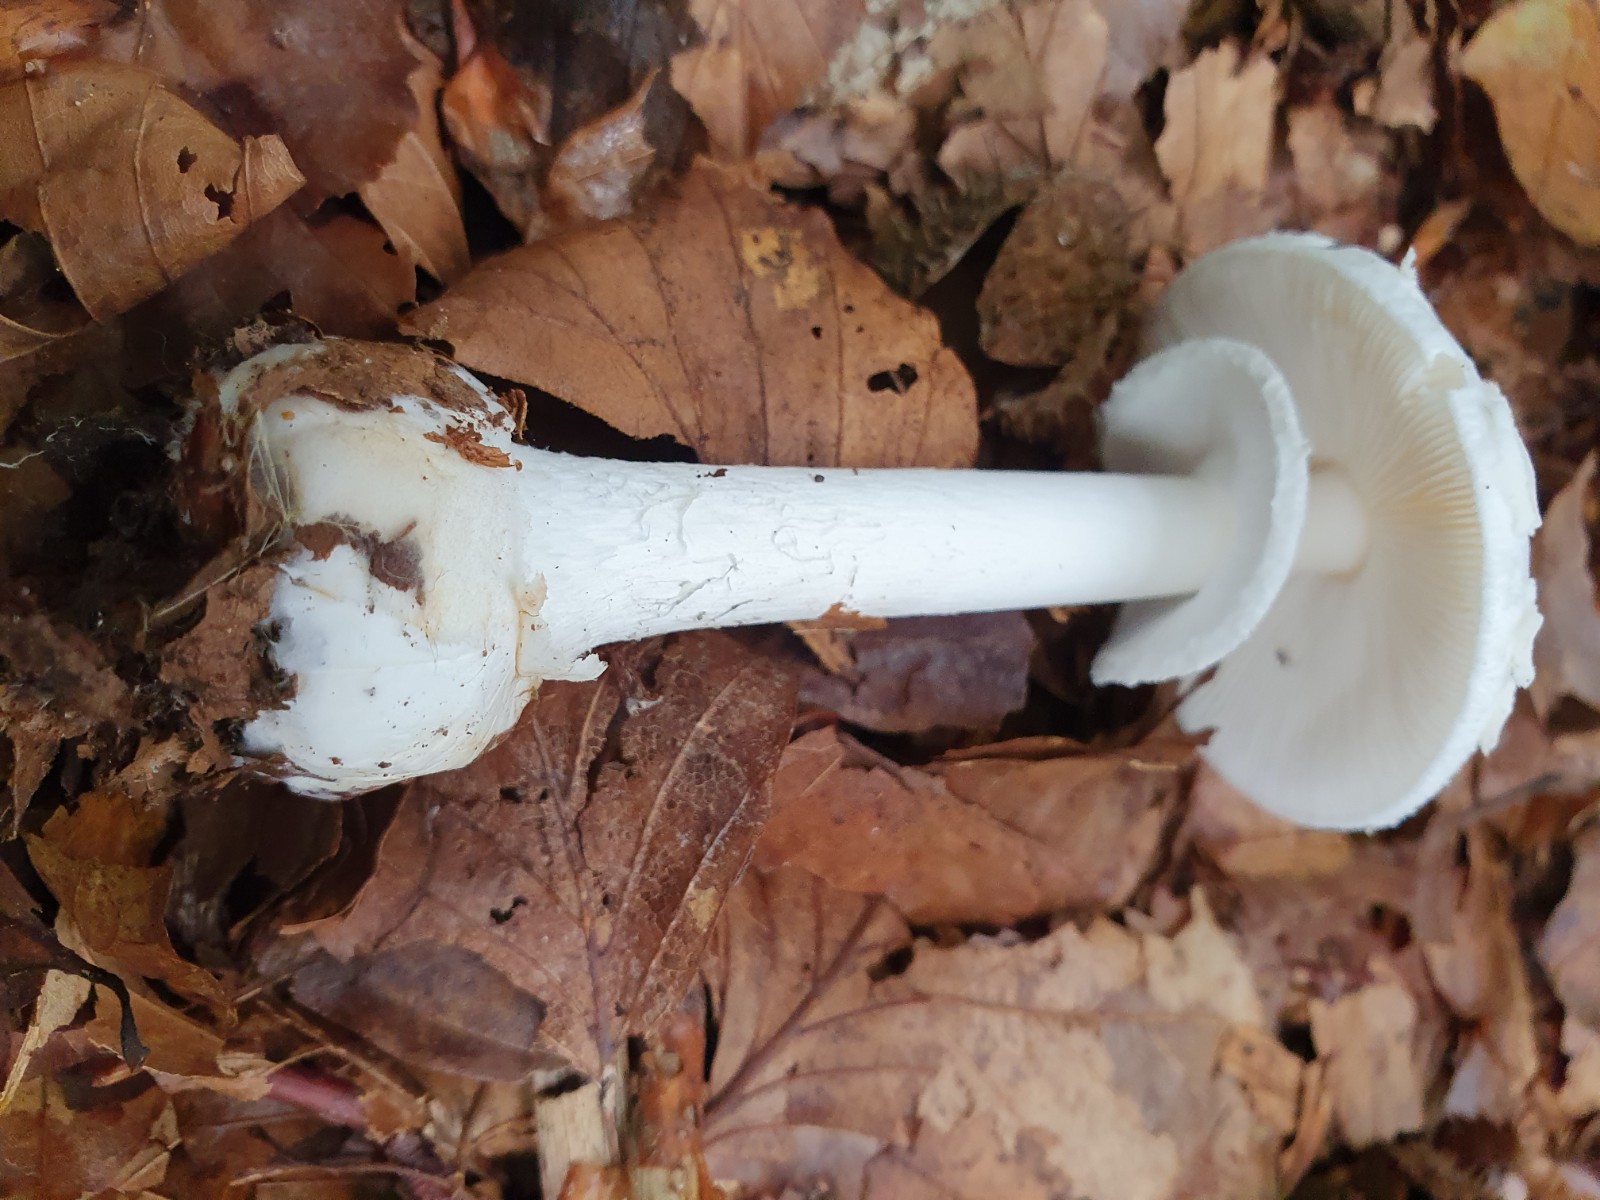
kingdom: Fungi
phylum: Basidiomycota
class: Agaricomycetes
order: Agaricales
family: Amanitaceae
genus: Amanita
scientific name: Amanita citrina
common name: False death-cap
